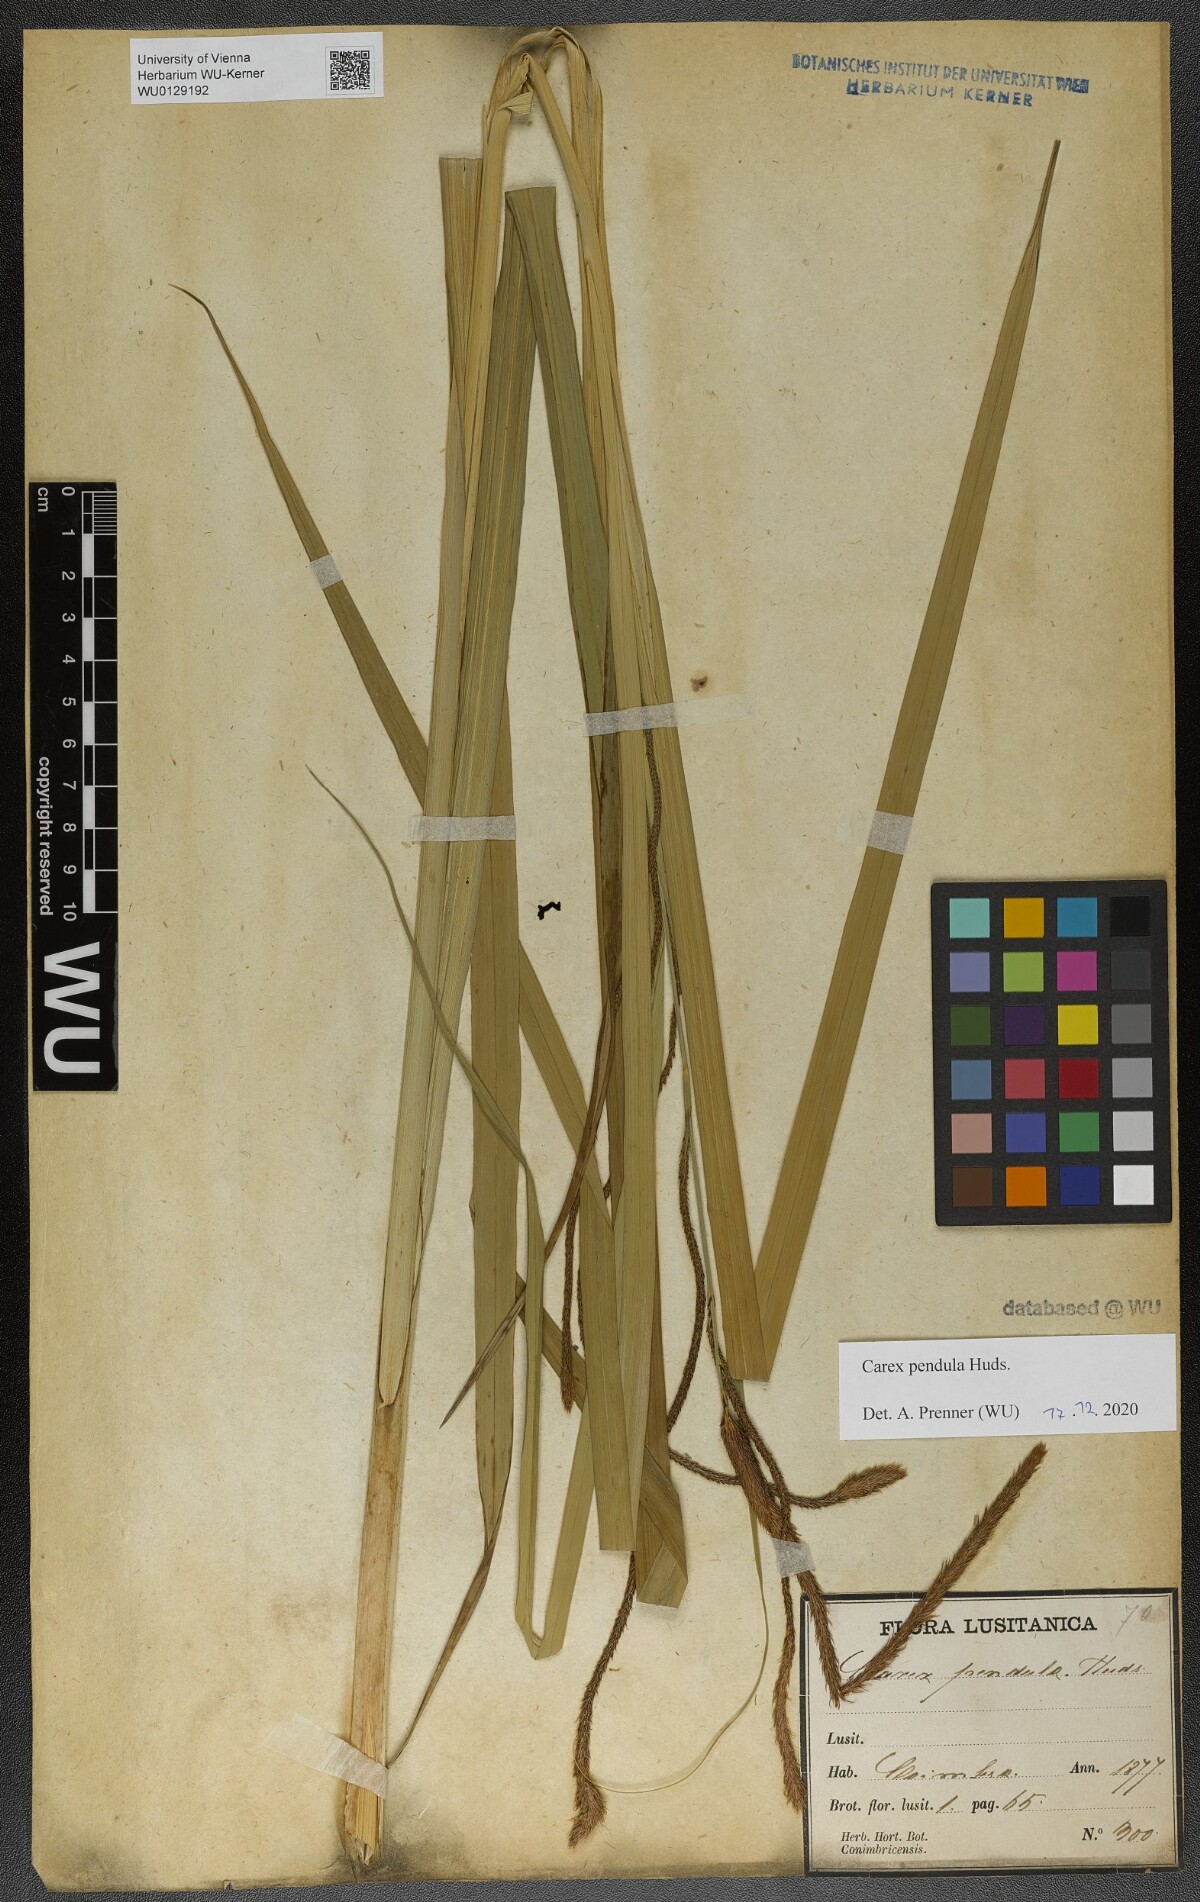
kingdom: Plantae
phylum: Tracheophyta
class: Liliopsida
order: Poales
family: Cyperaceae
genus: Carex
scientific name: Carex pendula
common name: Pendulous sedge
